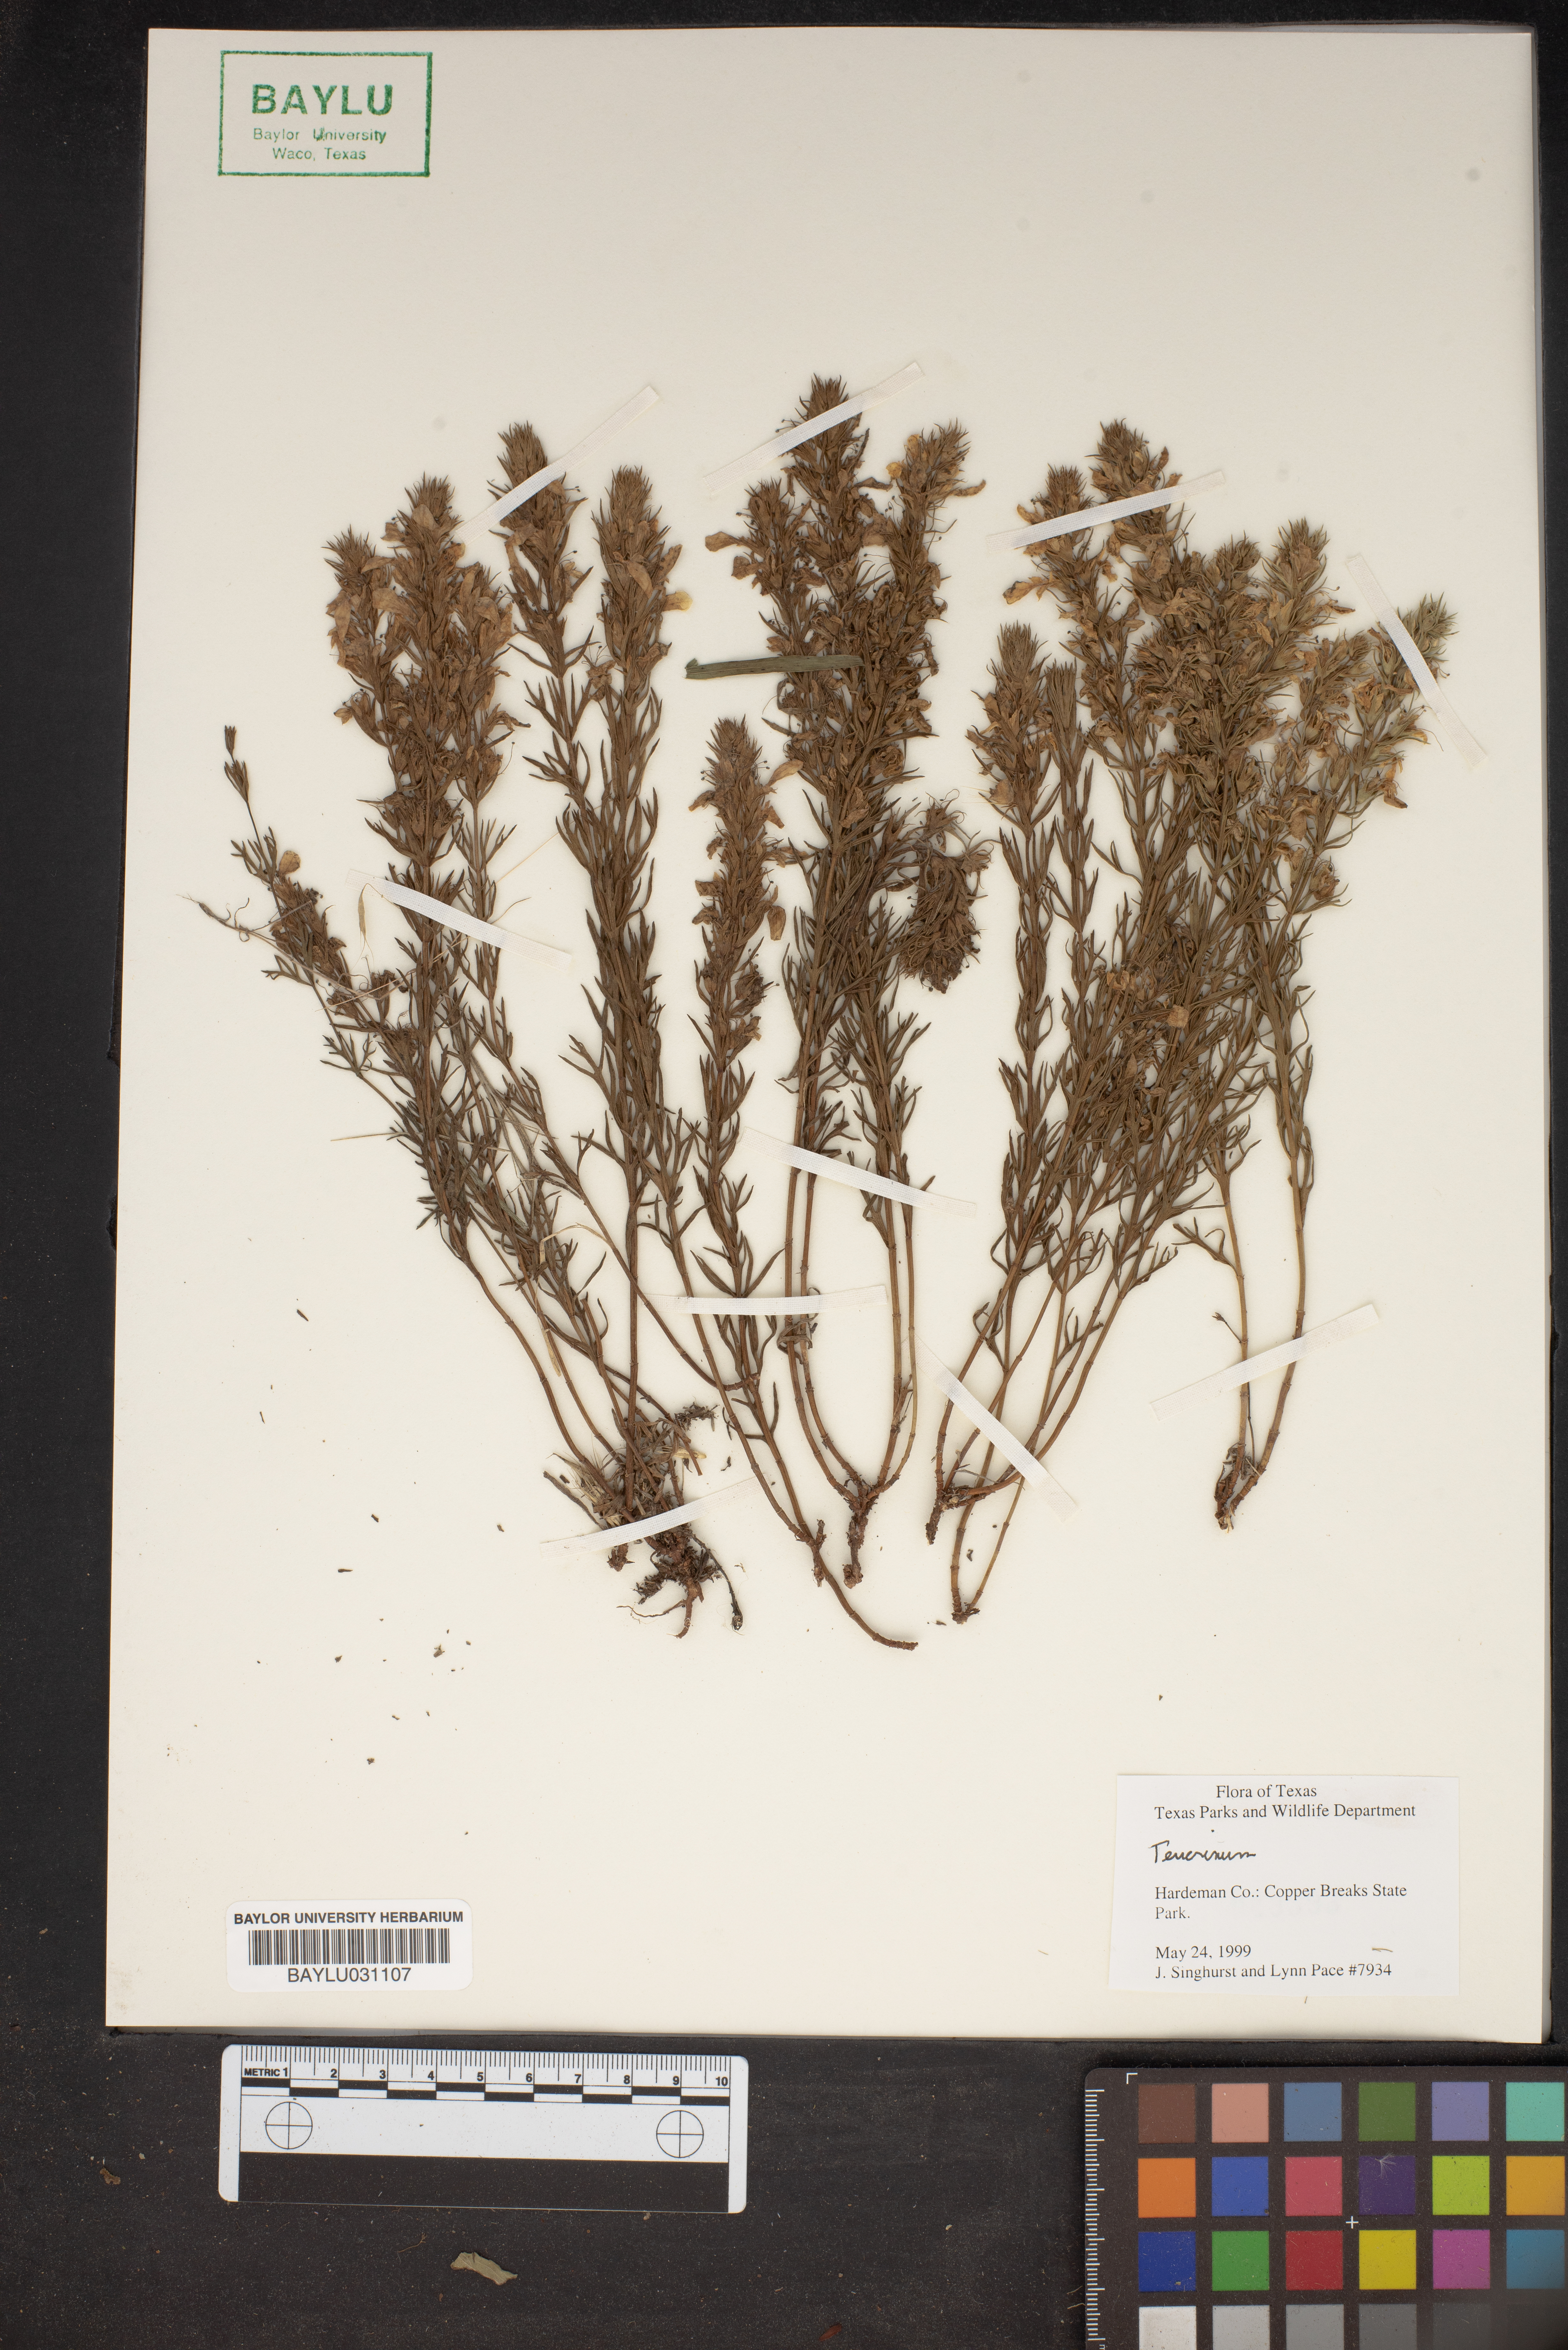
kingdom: Plantae
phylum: Tracheophyta
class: Magnoliopsida
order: Lamiales
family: Lamiaceae
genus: Teucrium
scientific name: Teucrium
